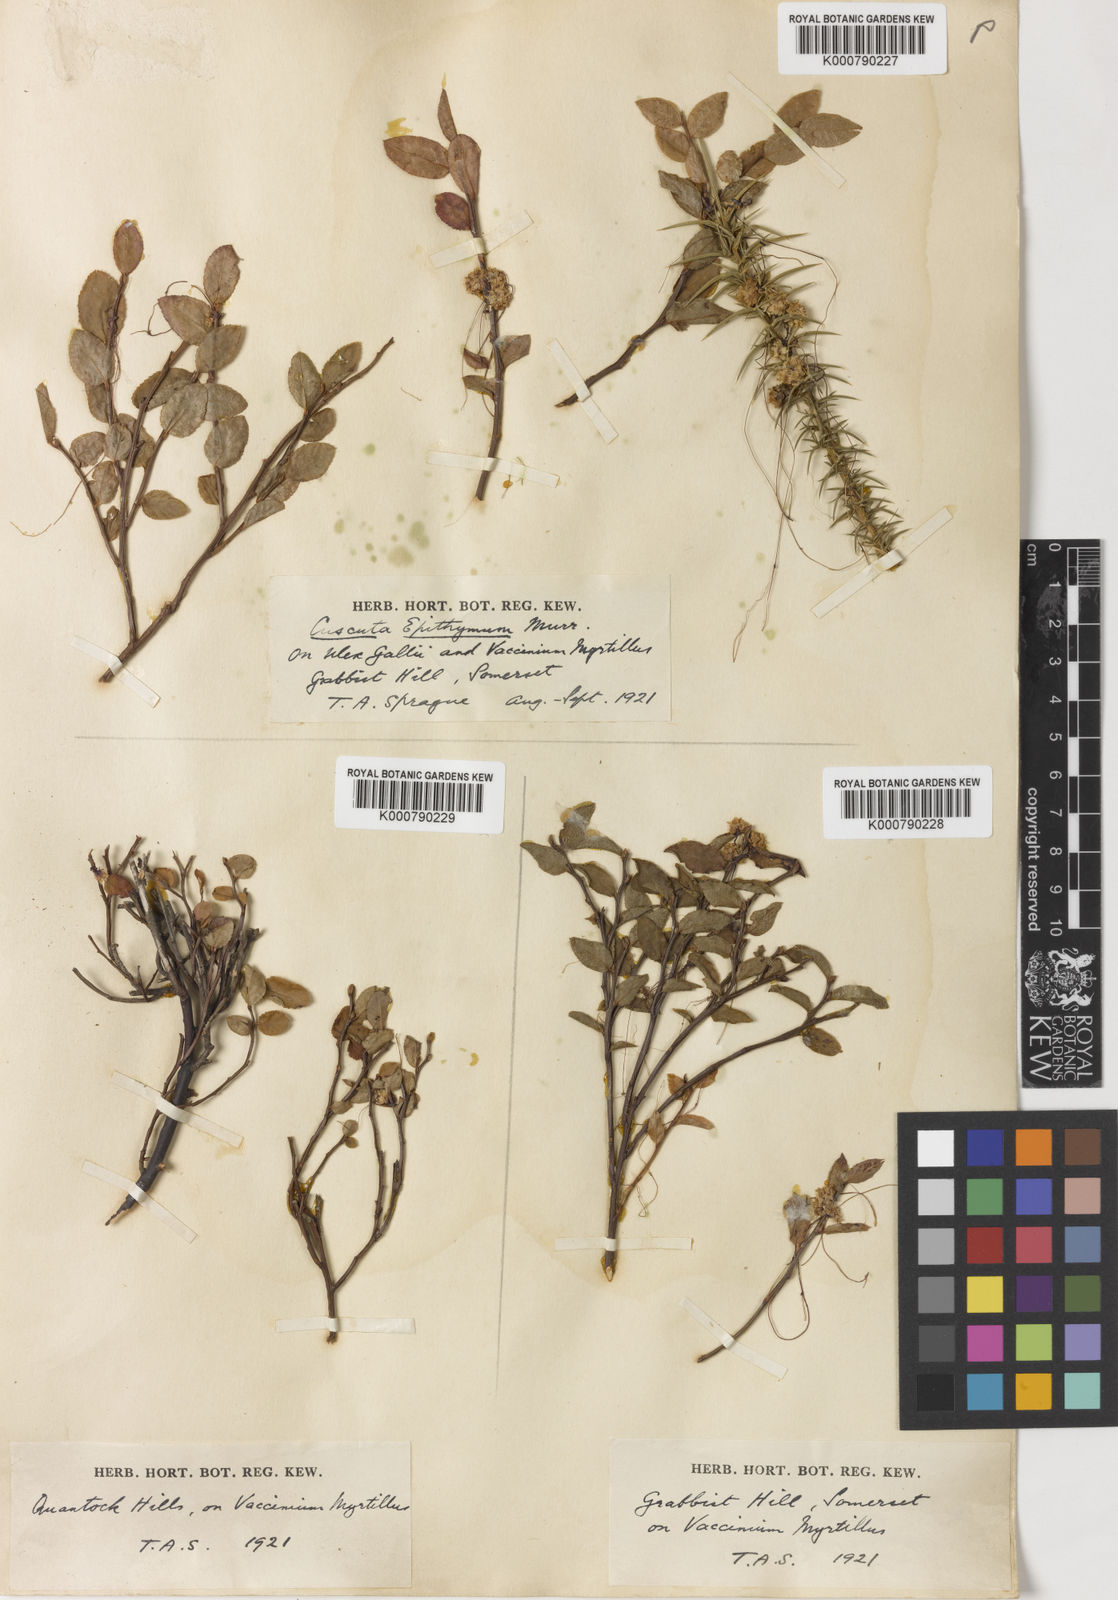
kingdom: Plantae
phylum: Tracheophyta
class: Magnoliopsida
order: Solanales
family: Convolvulaceae
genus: Cuscuta
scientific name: Cuscuta epithymum
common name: Clover dodder
